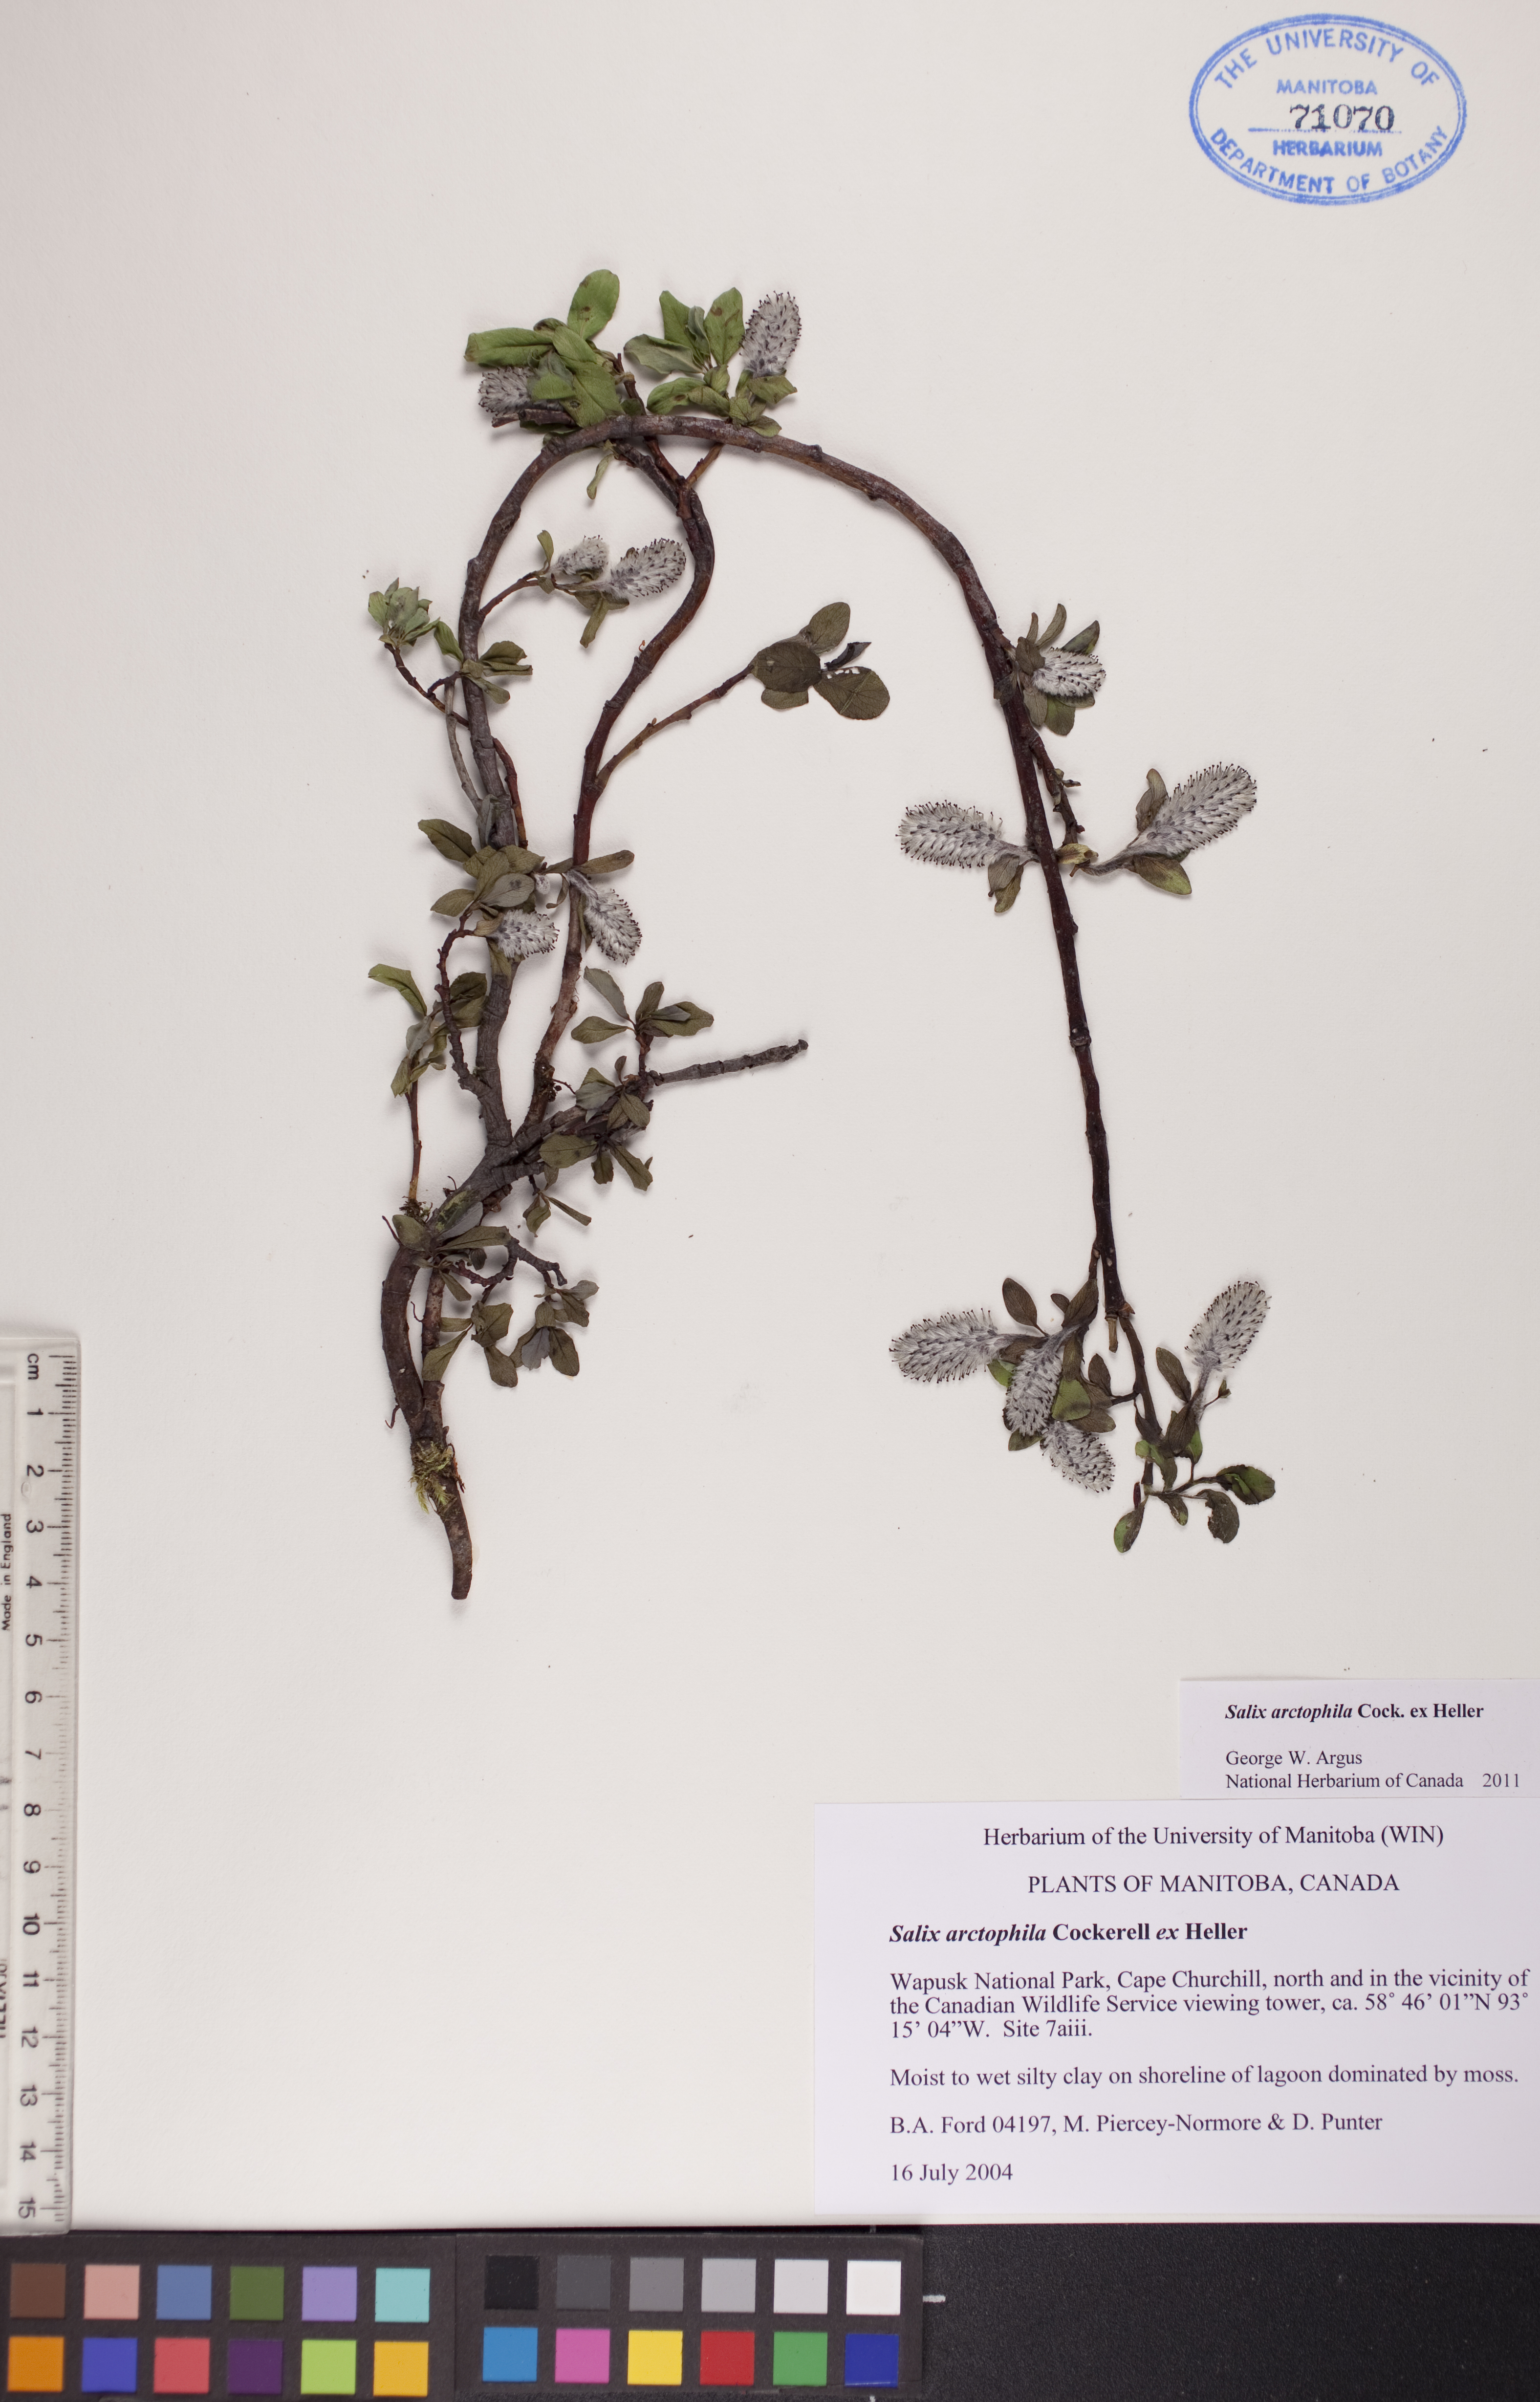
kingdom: Plantae
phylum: Tracheophyta
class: Magnoliopsida
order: Malpighiales
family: Salicaceae
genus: Salix
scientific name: Salix arctophila
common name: Greenland willow
